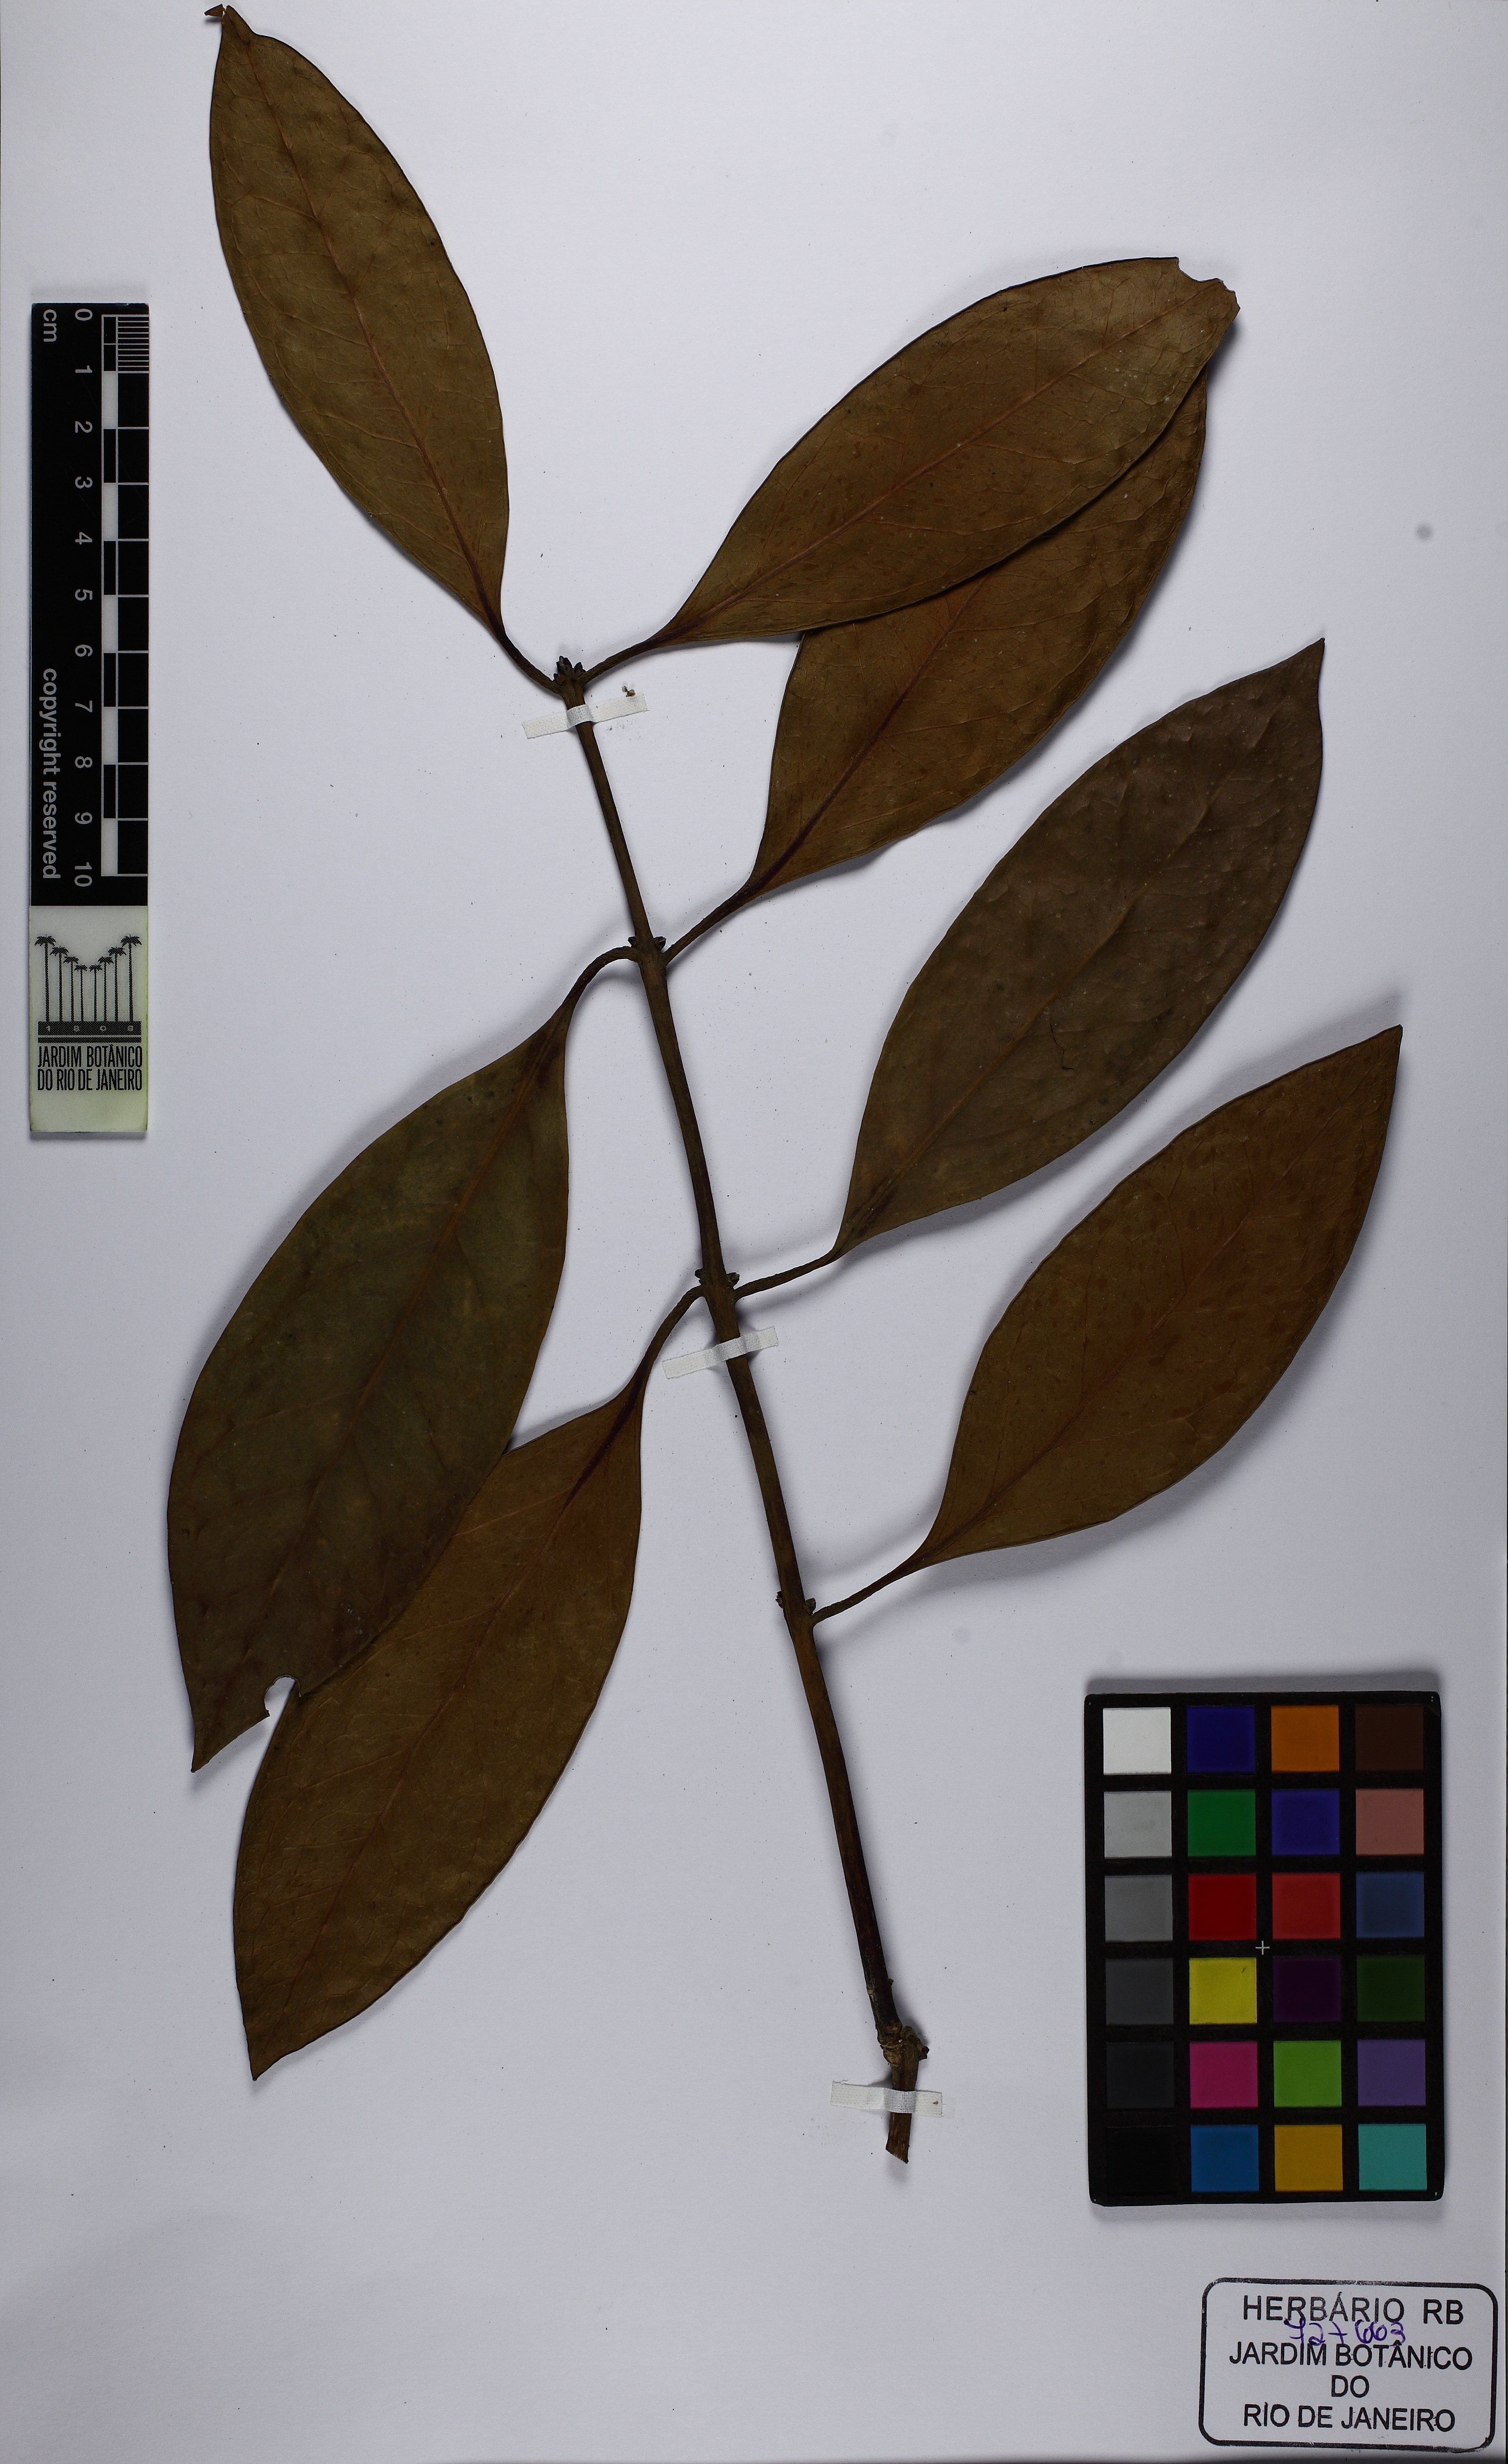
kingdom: Plantae
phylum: Tracheophyta
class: Magnoliopsida
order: Laurales
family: Monimiaceae
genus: Mollinedia
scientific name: Mollinedia boracensis
